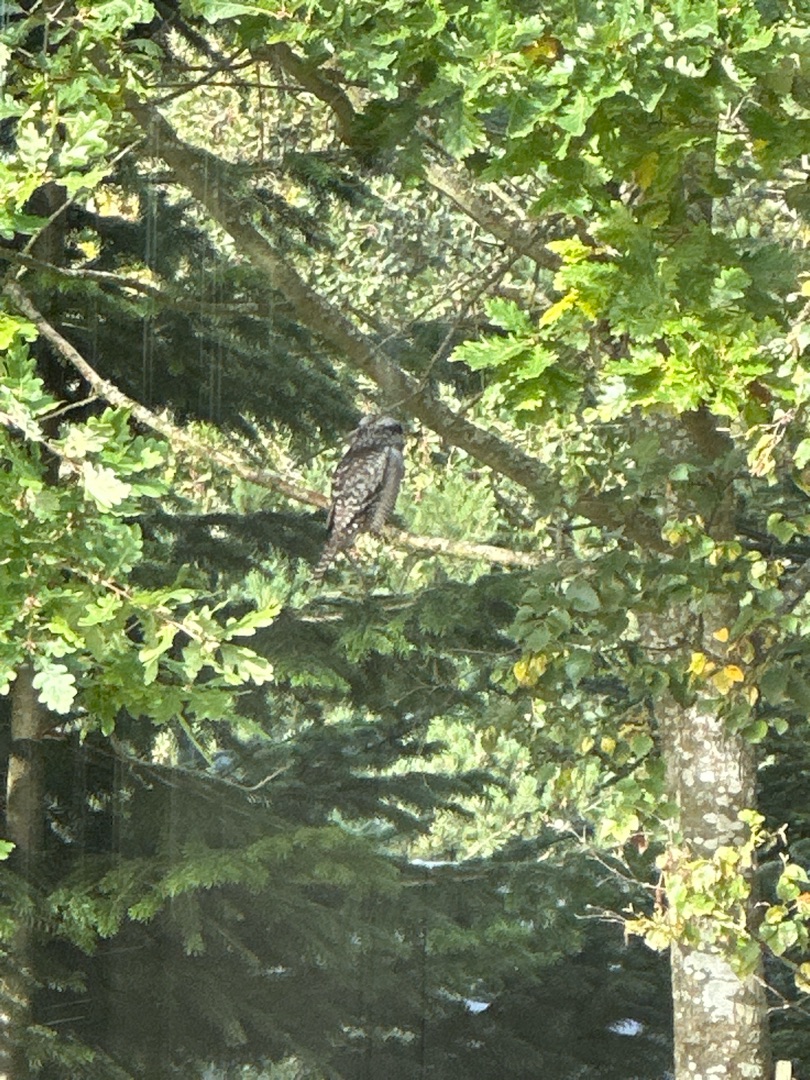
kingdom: Animalia
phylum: Chordata
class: Aves
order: Strigiformes
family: Strigidae
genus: Surnia
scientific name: Surnia ulula
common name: Høgeugle
